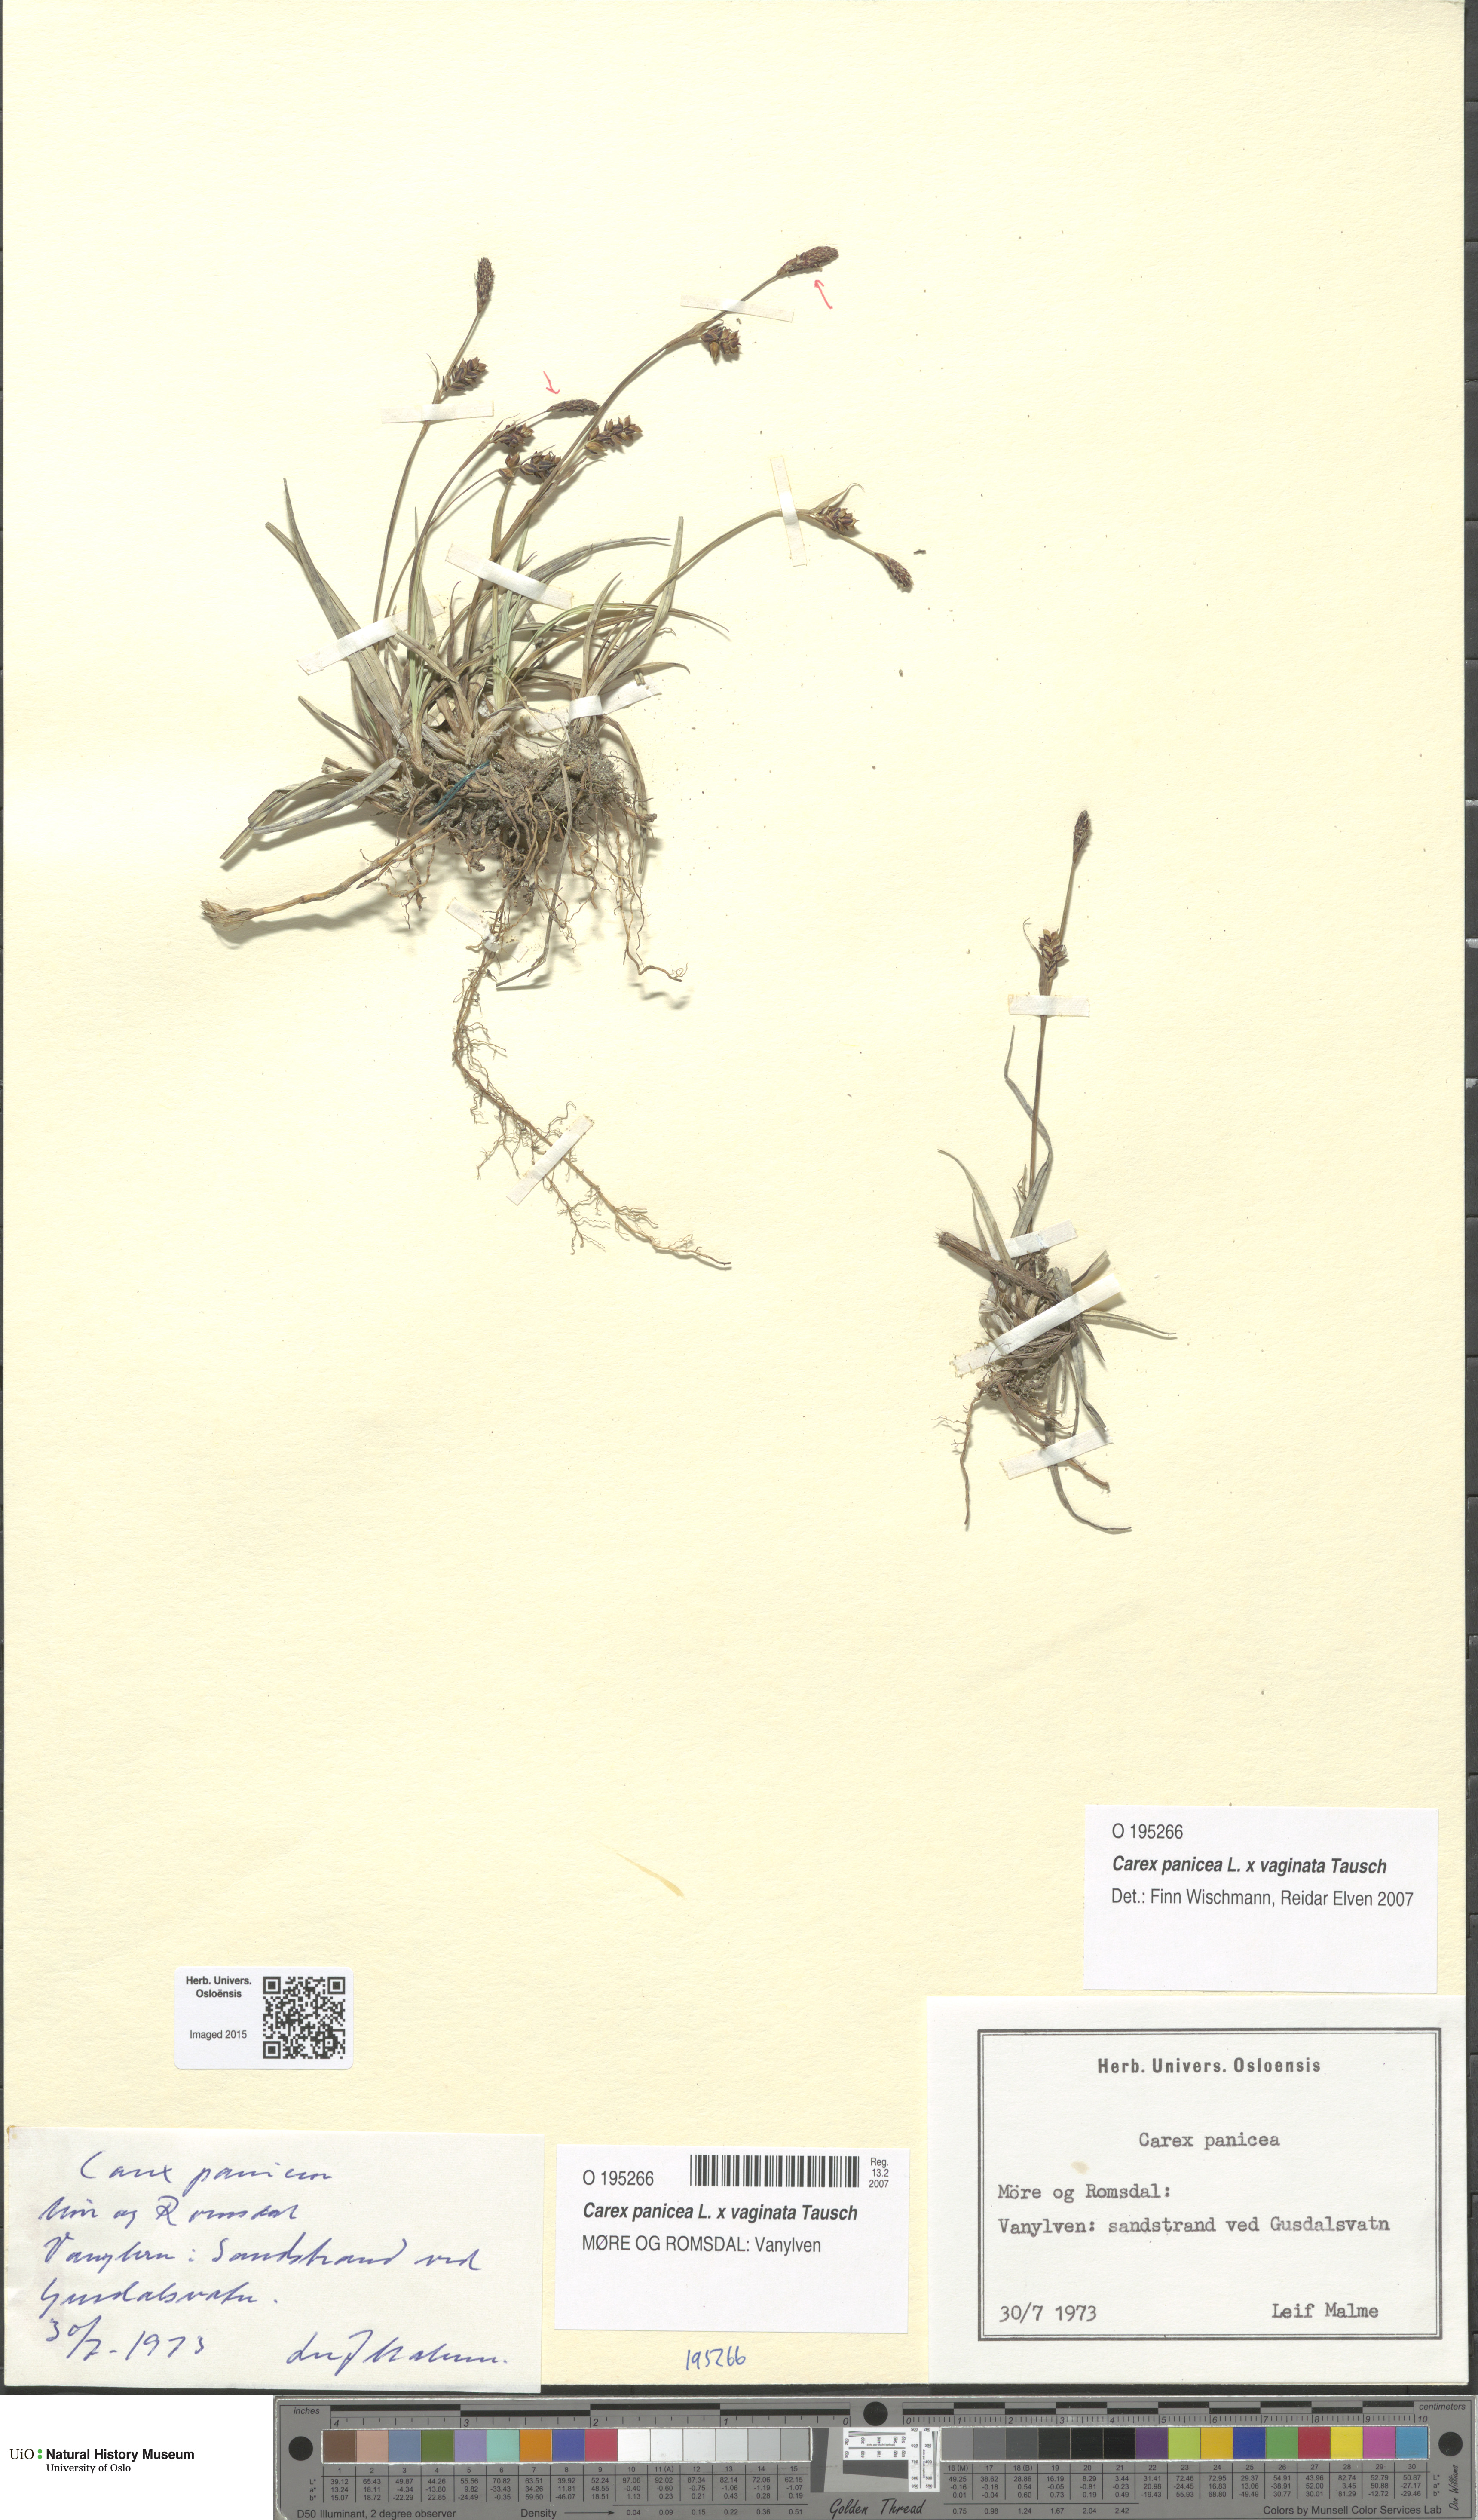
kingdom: Plantae
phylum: Tracheophyta
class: Liliopsida
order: Poales
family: Cyperaceae
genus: Carex
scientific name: Carex
